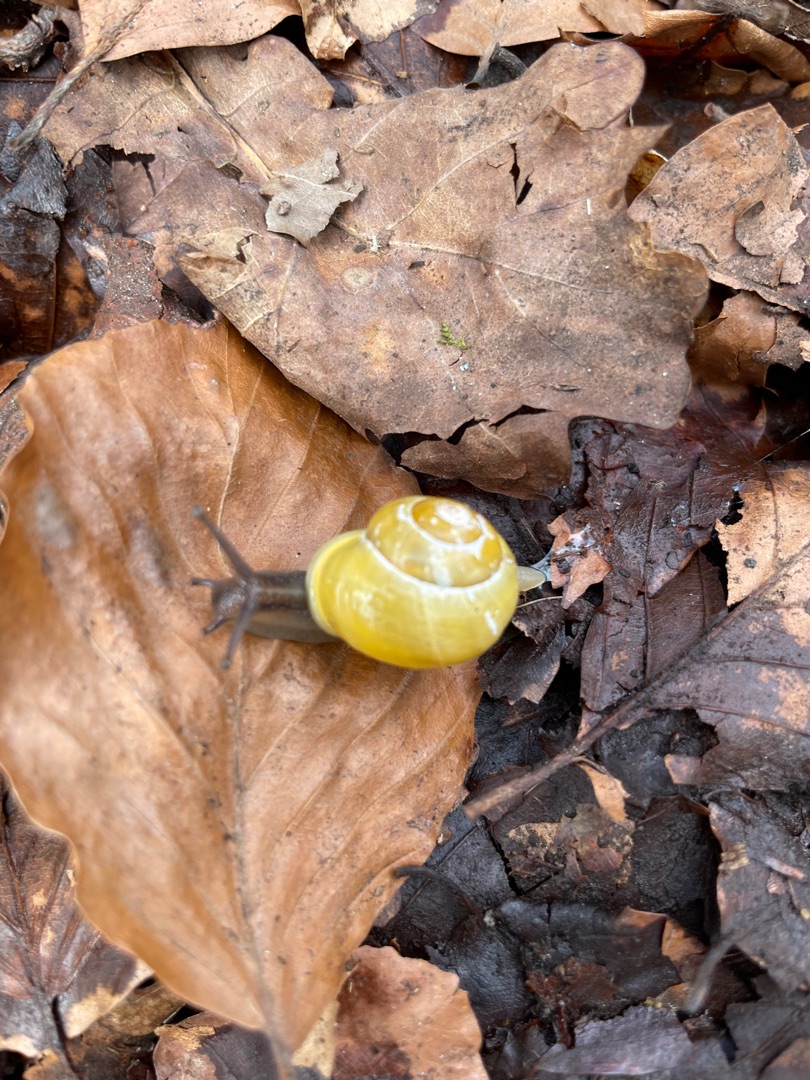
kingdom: Animalia
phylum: Mollusca
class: Gastropoda
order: Stylommatophora
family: Helicidae
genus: Cepaea
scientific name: Cepaea hortensis
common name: Havesnegl
